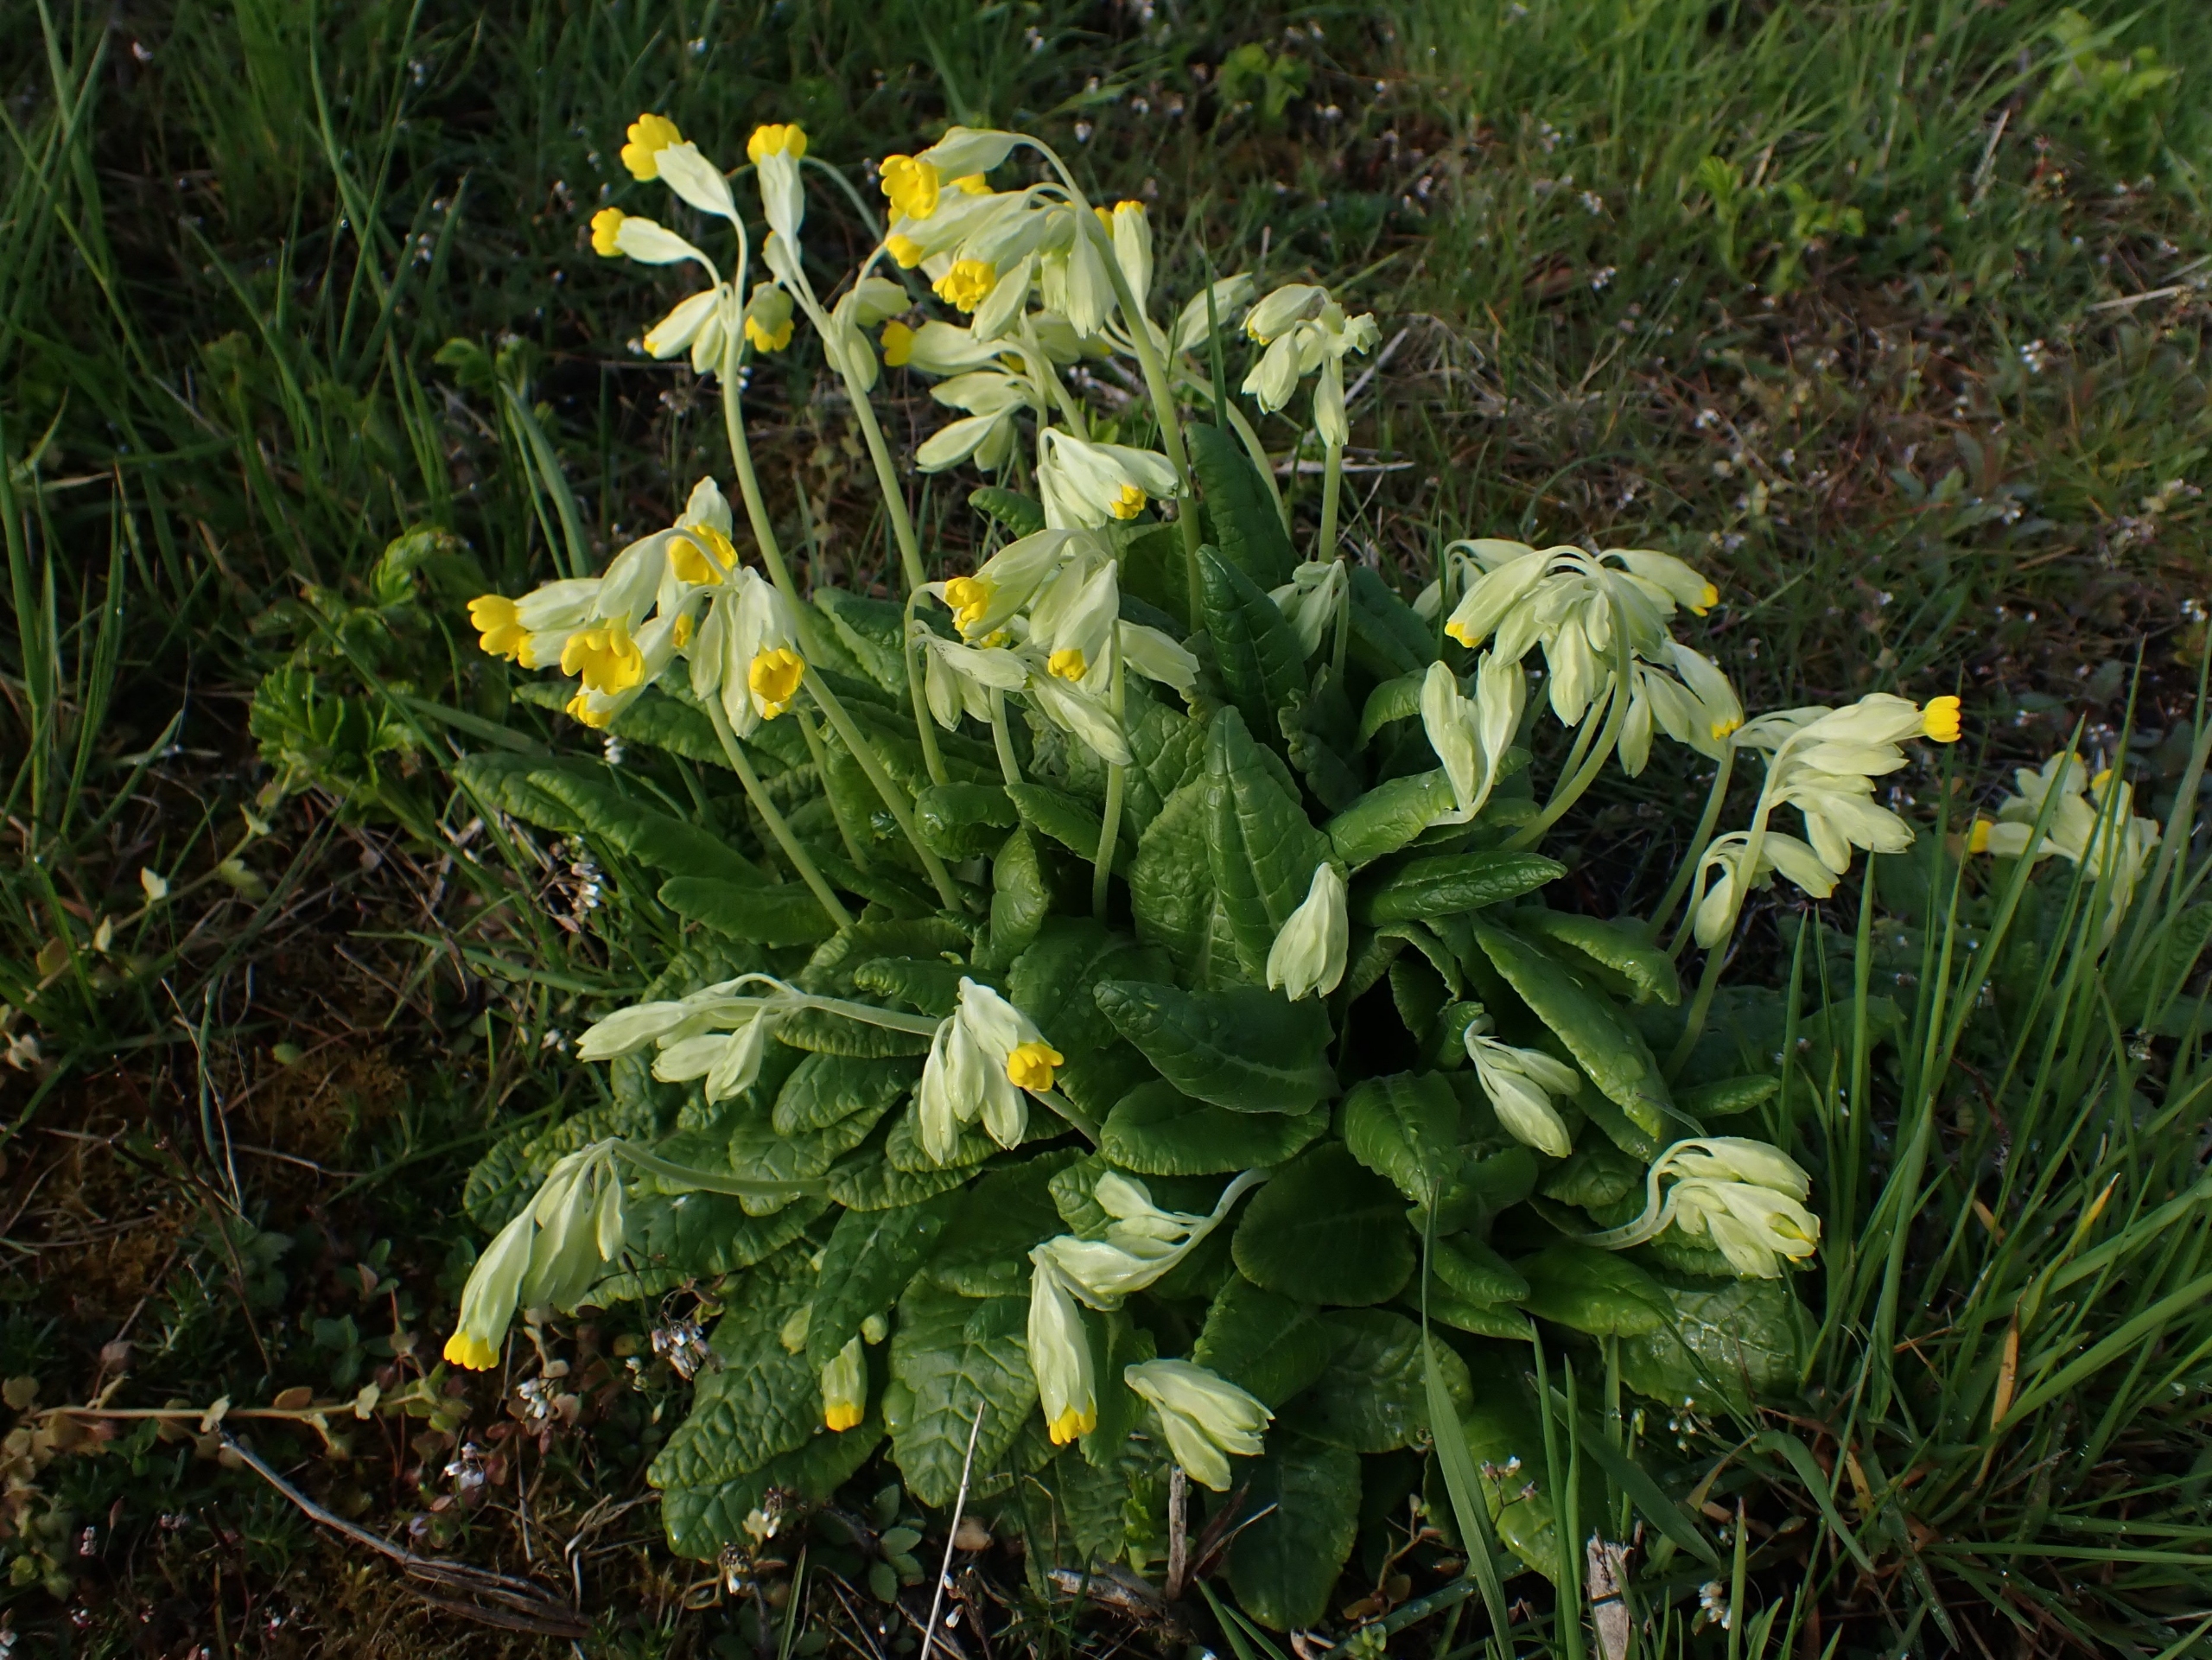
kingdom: Plantae
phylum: Tracheophyta
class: Magnoliopsida
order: Ericales
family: Primulaceae
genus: Primula
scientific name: Primula veris
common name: Hulkravet kodriver
